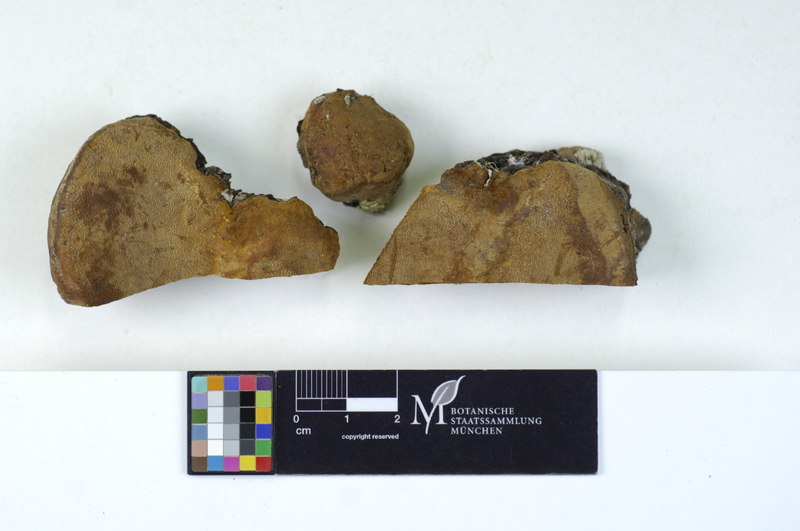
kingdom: Plantae
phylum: Tracheophyta
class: Magnoliopsida
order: Fagales
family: Betulaceae
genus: Betula
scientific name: Betula
